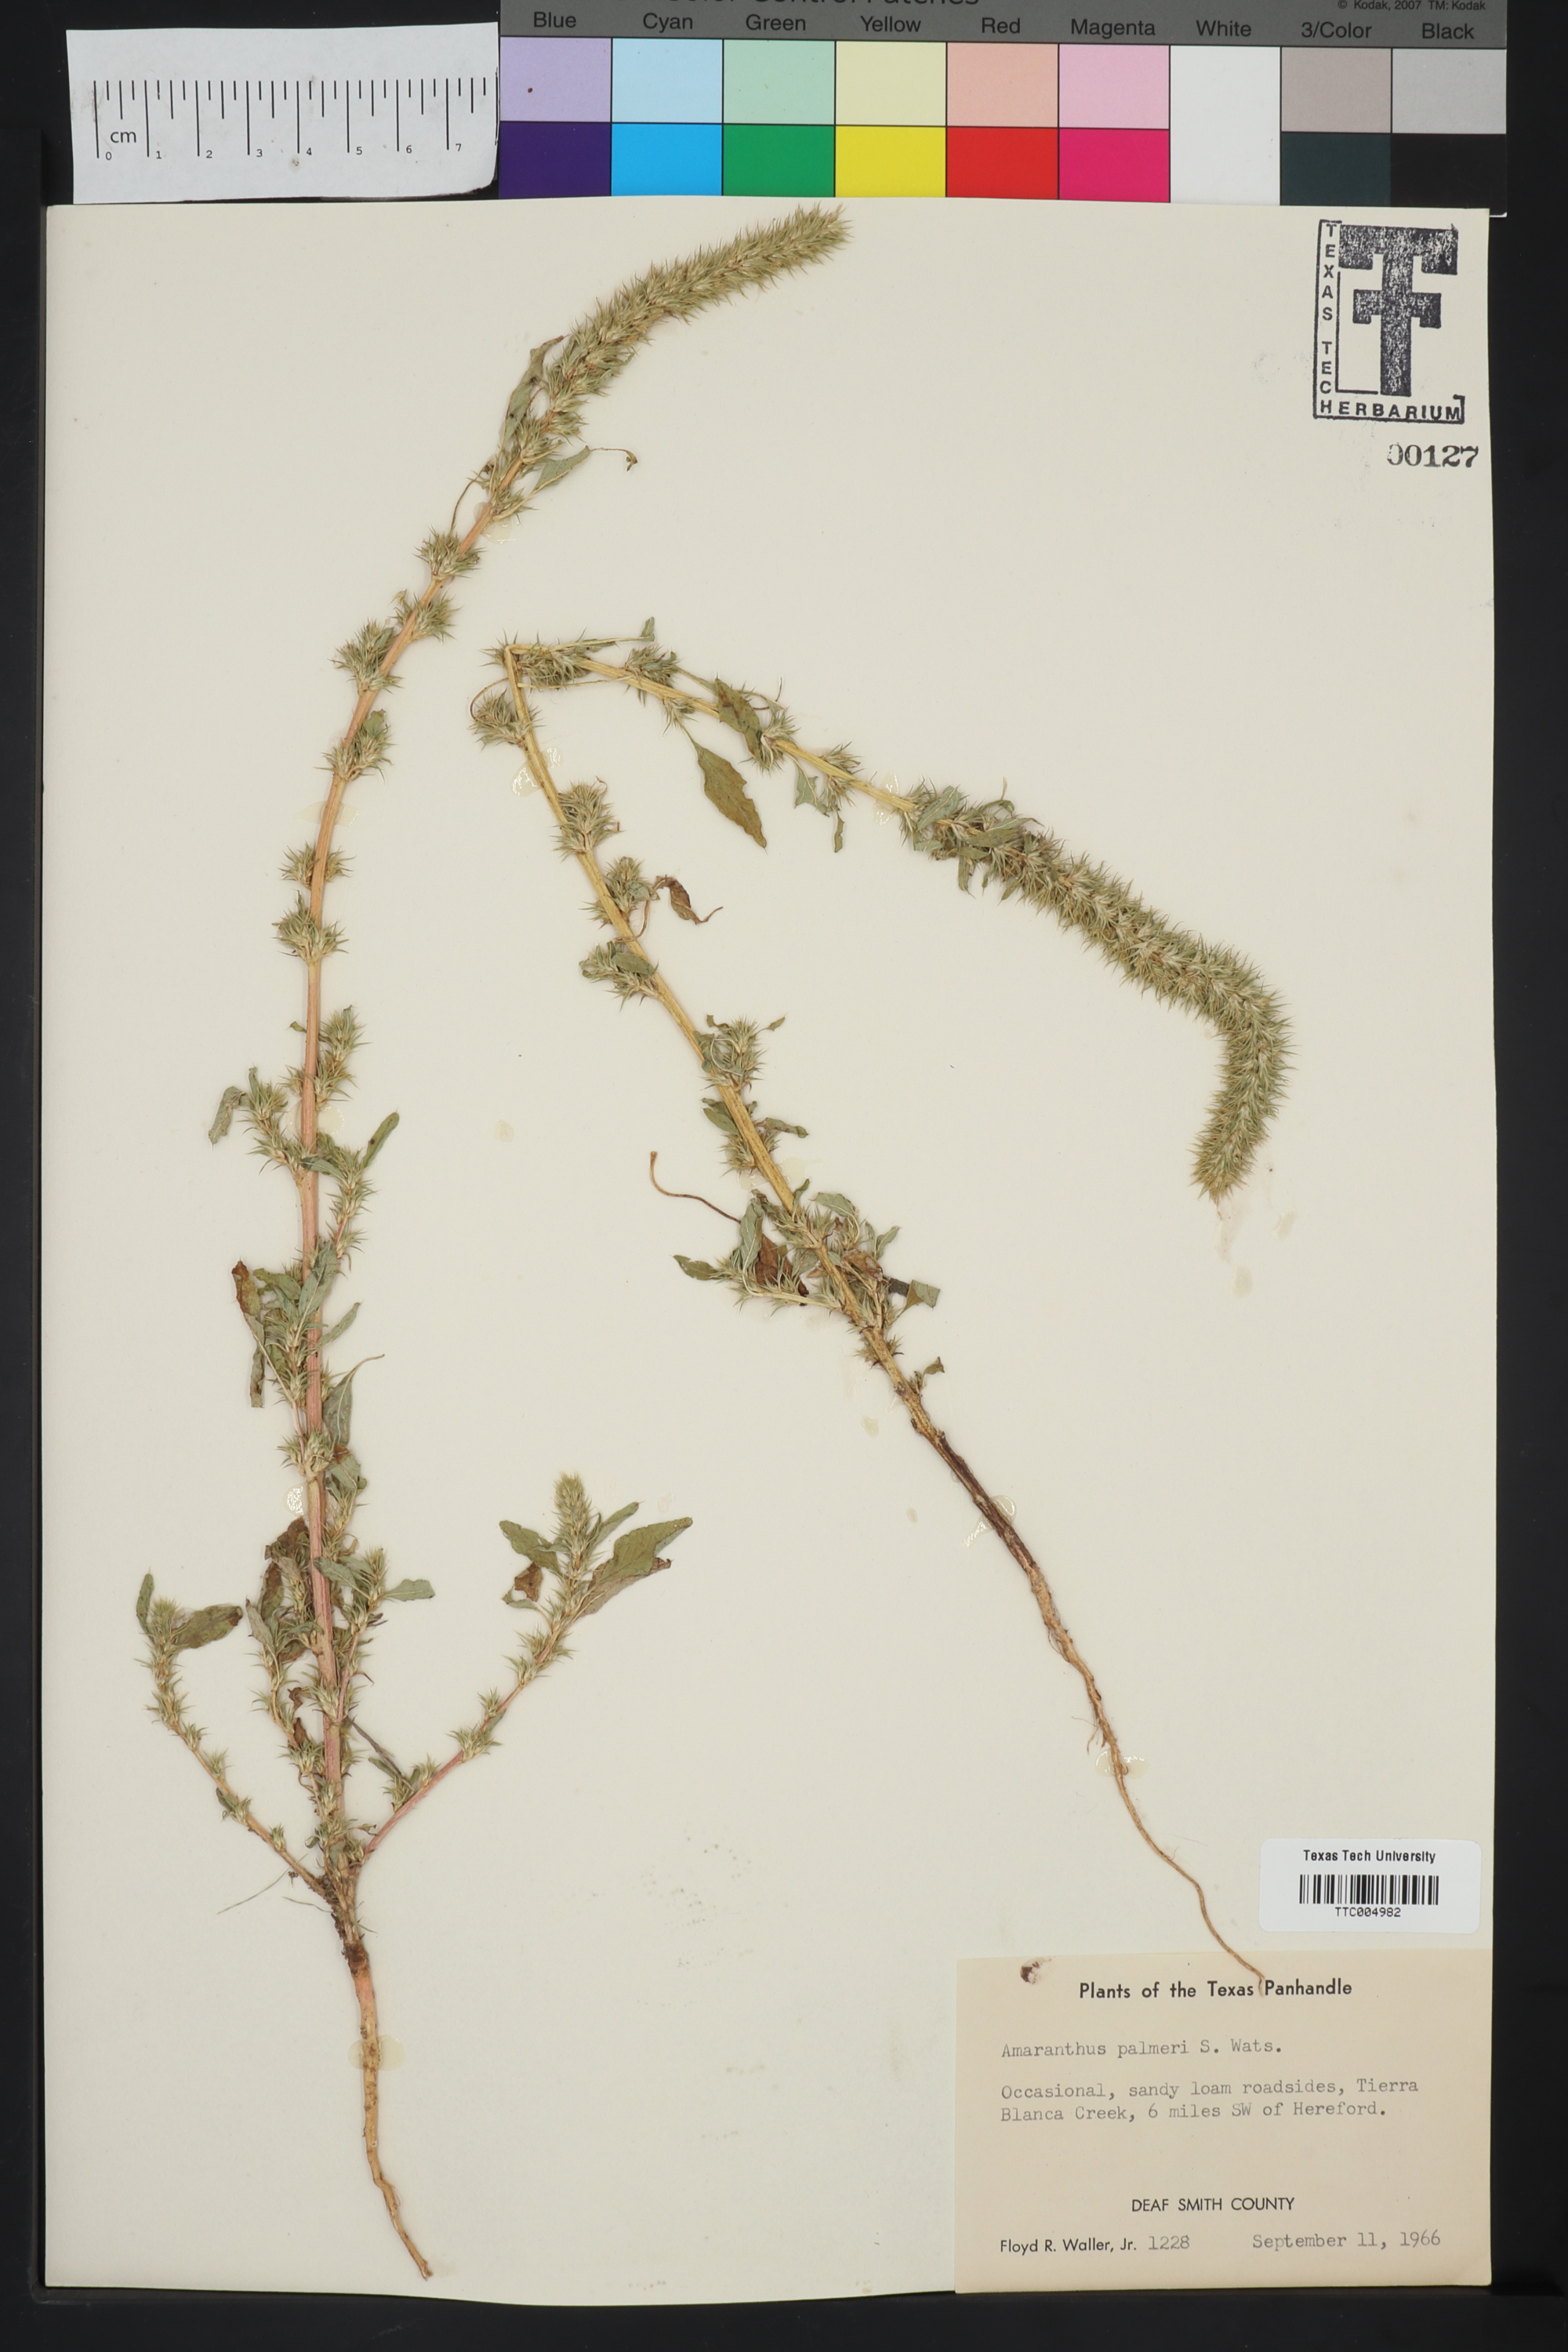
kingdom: Plantae
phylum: Tracheophyta
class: Magnoliopsida
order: Caryophyllales
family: Amaranthaceae
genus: Amaranthus
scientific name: Amaranthus palmeri
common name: Dioecious amaranth
